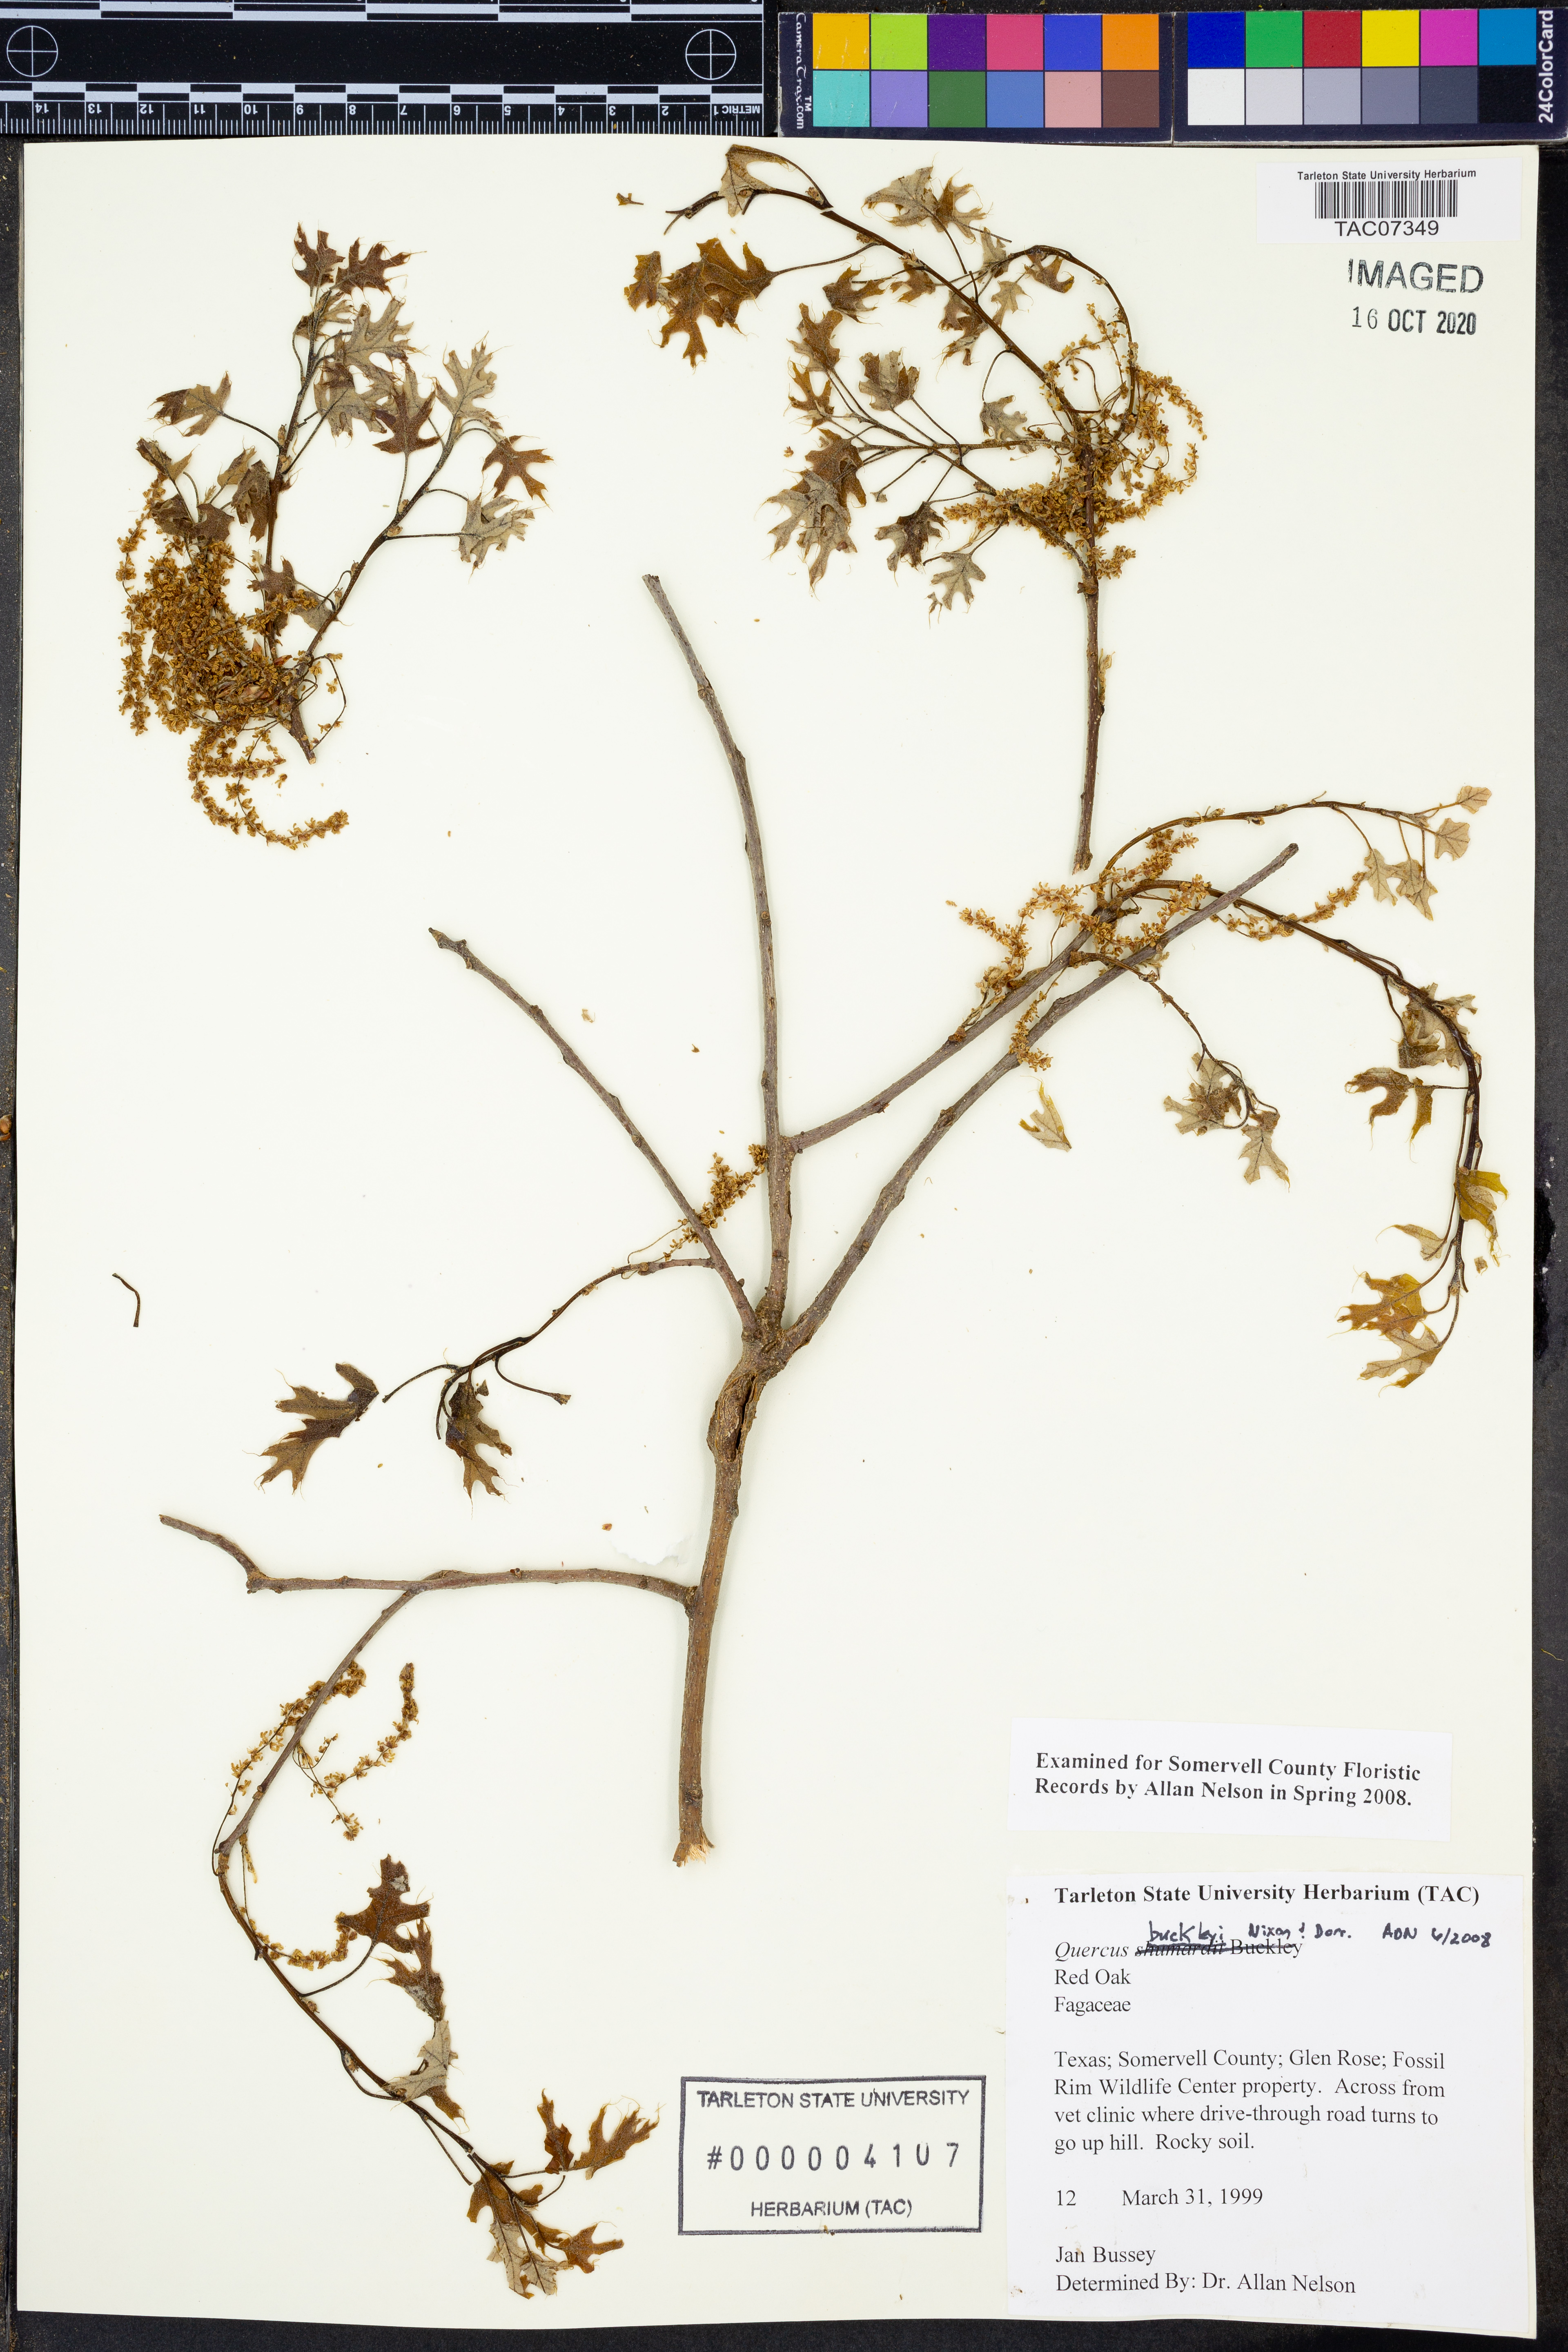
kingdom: Plantae
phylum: Tracheophyta
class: Magnoliopsida
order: Fagales
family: Fagaceae
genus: Quercus
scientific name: Quercus buckleyi
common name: Buckley oak
